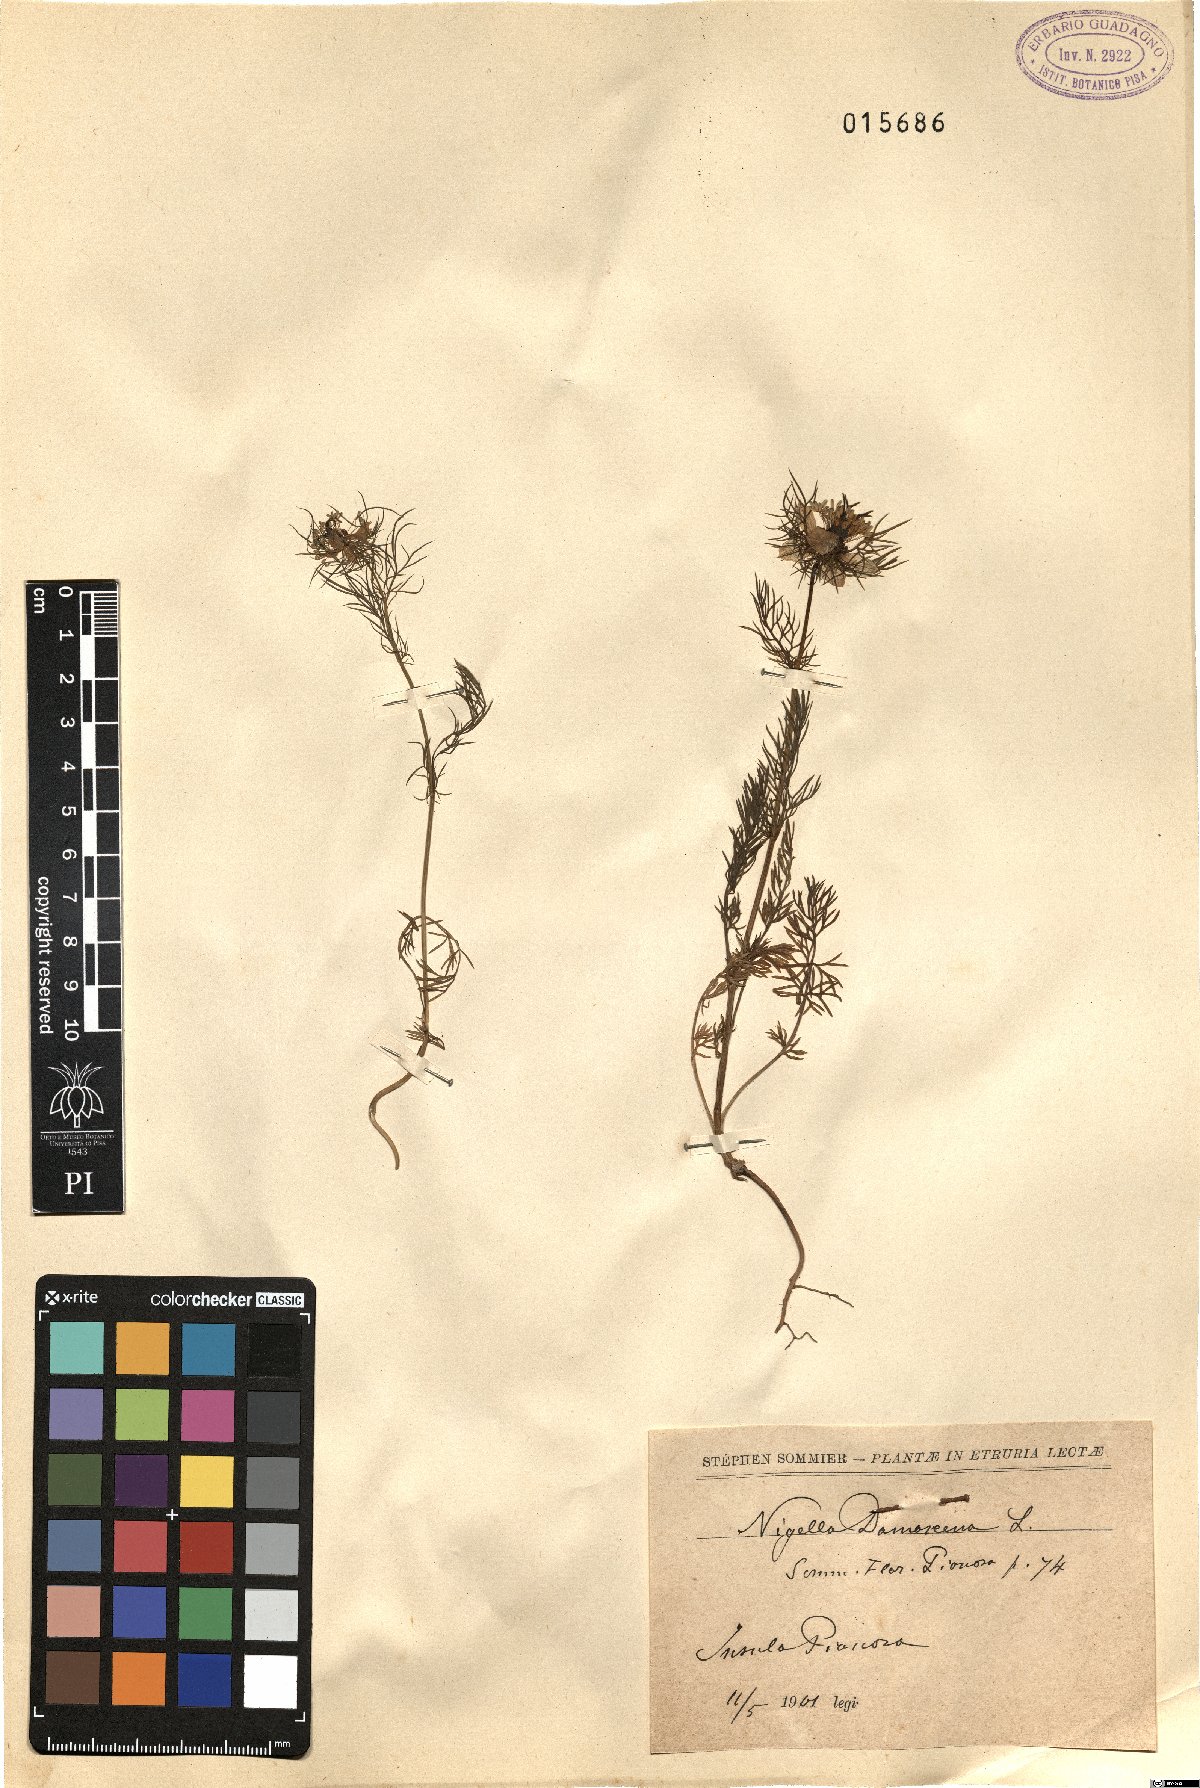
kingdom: Plantae
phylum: Tracheophyta
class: Magnoliopsida
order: Ranunculales
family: Ranunculaceae
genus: Nigella
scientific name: Nigella damascena
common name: Love-in-a-mist
